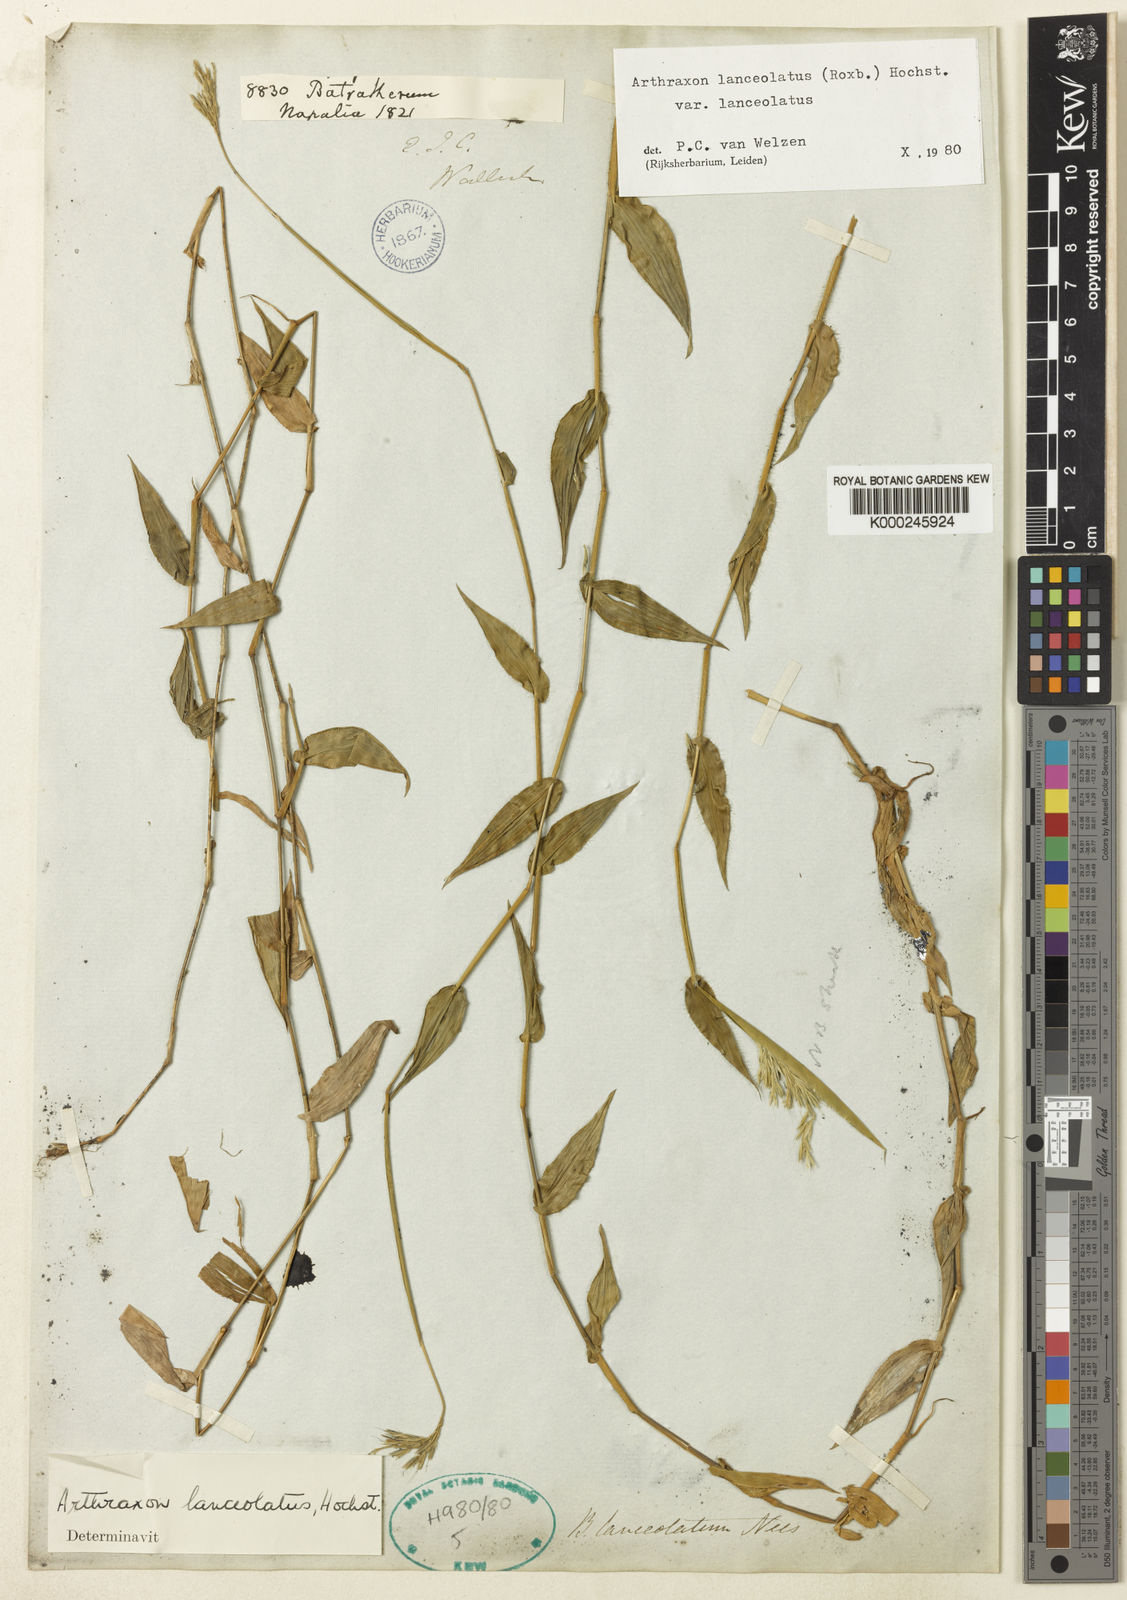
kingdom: Plantae
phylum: Tracheophyta
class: Liliopsida
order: Poales
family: Poaceae
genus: Arthraxon
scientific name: Arthraxon lanceolatus
